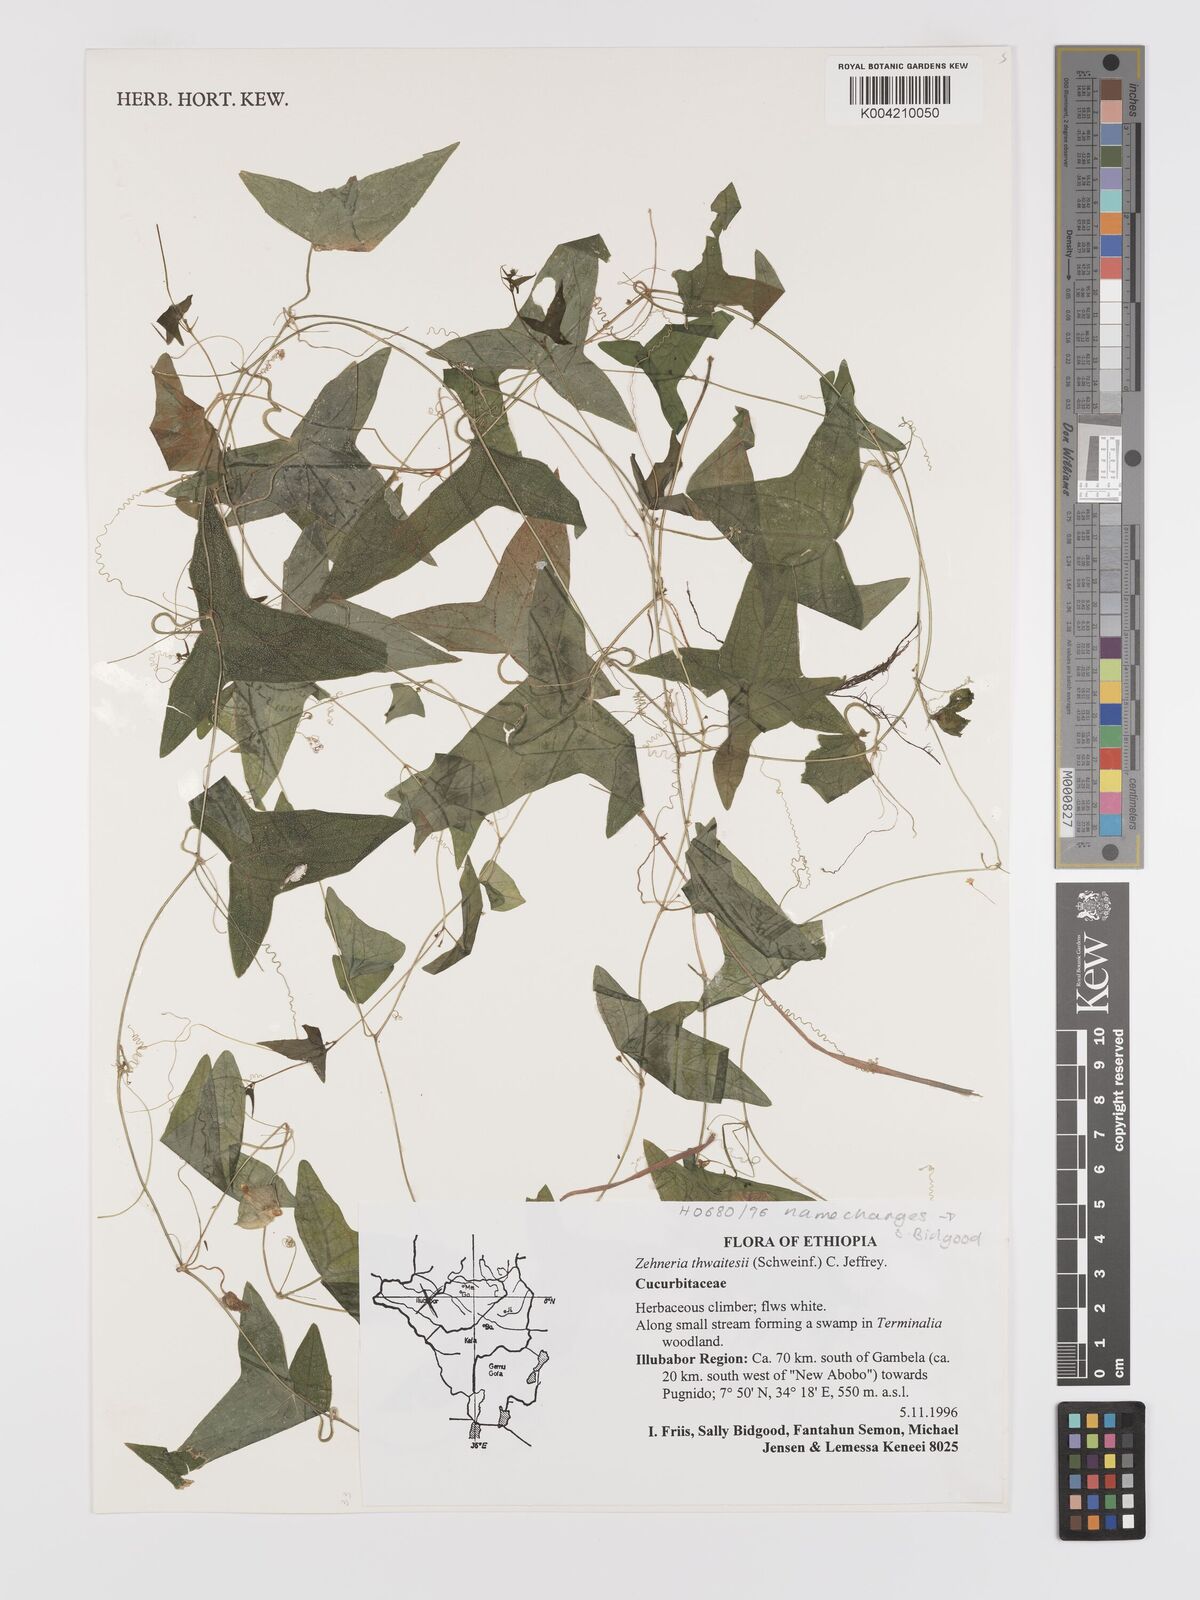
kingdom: Plantae
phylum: Tracheophyta
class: Magnoliopsida
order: Cucurbitales
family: Cucurbitaceae
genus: Zehneria
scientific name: Zehneria thwaitesii
